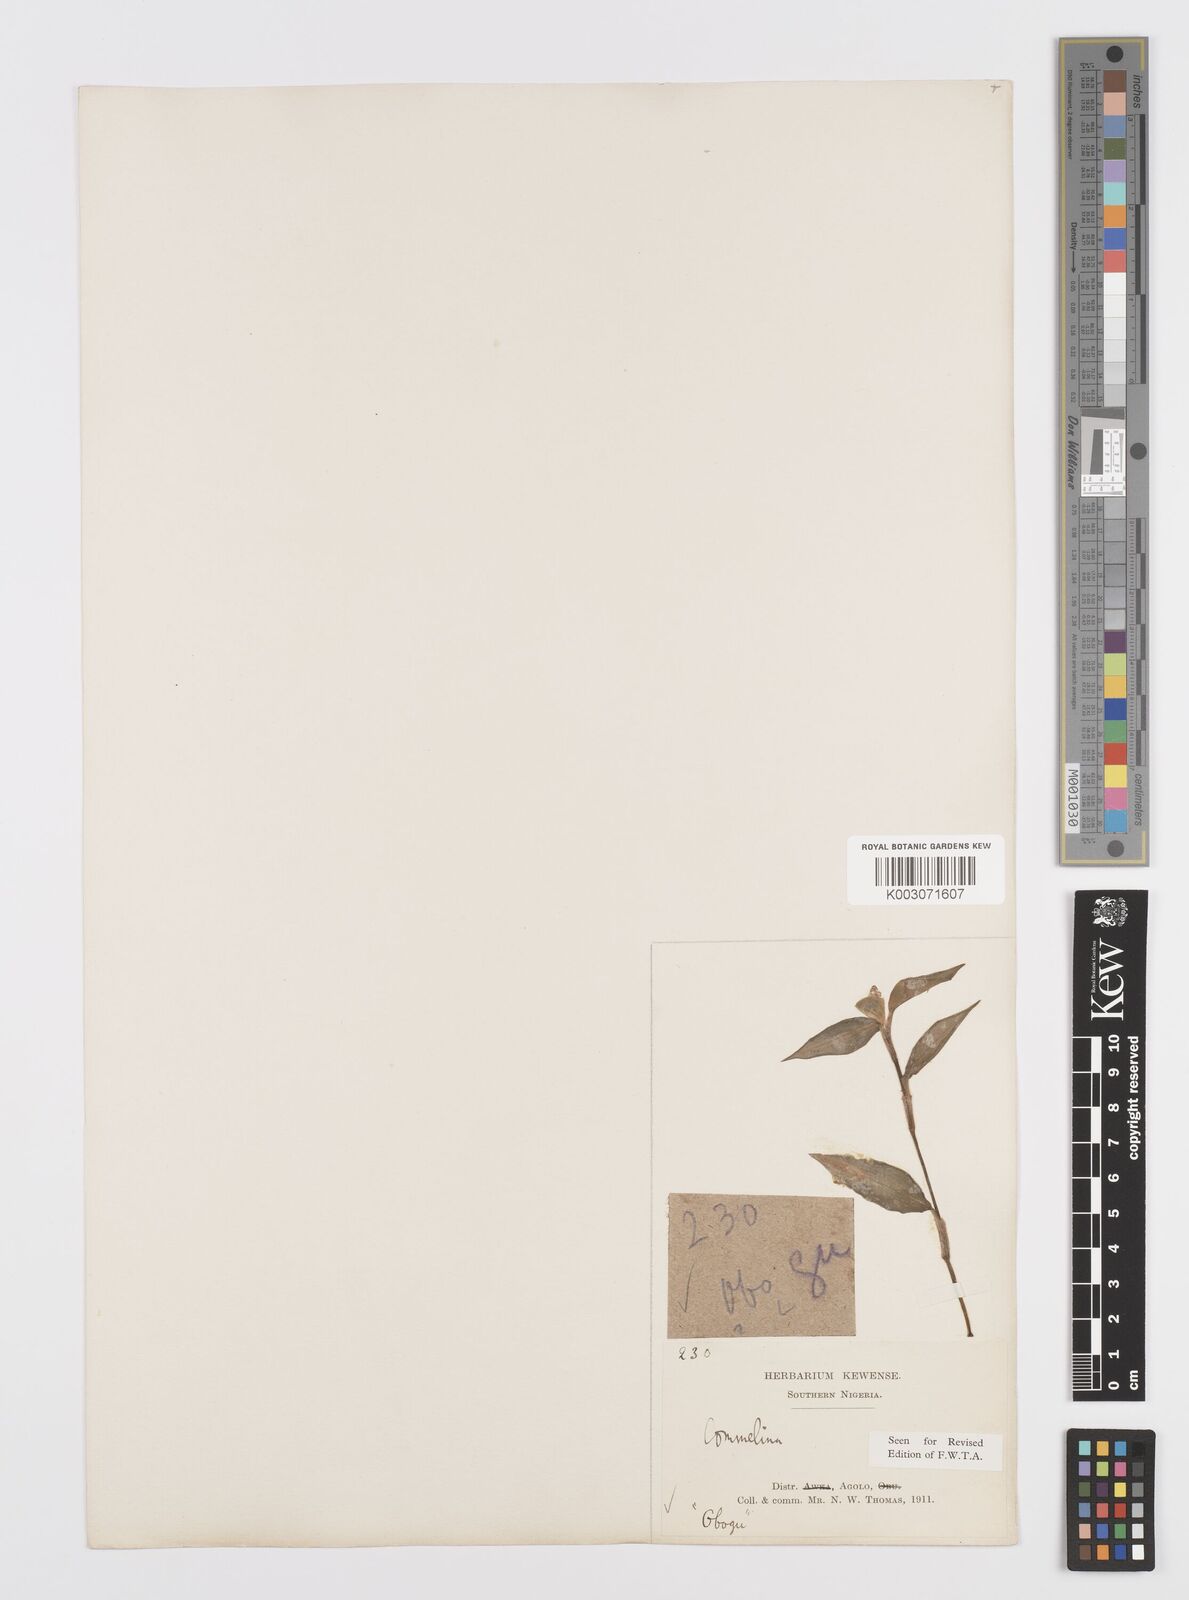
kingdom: Plantae
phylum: Tracheophyta
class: Liliopsida
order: Commelinales
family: Commelinaceae
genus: Commelina
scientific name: Commelina bracteosa
